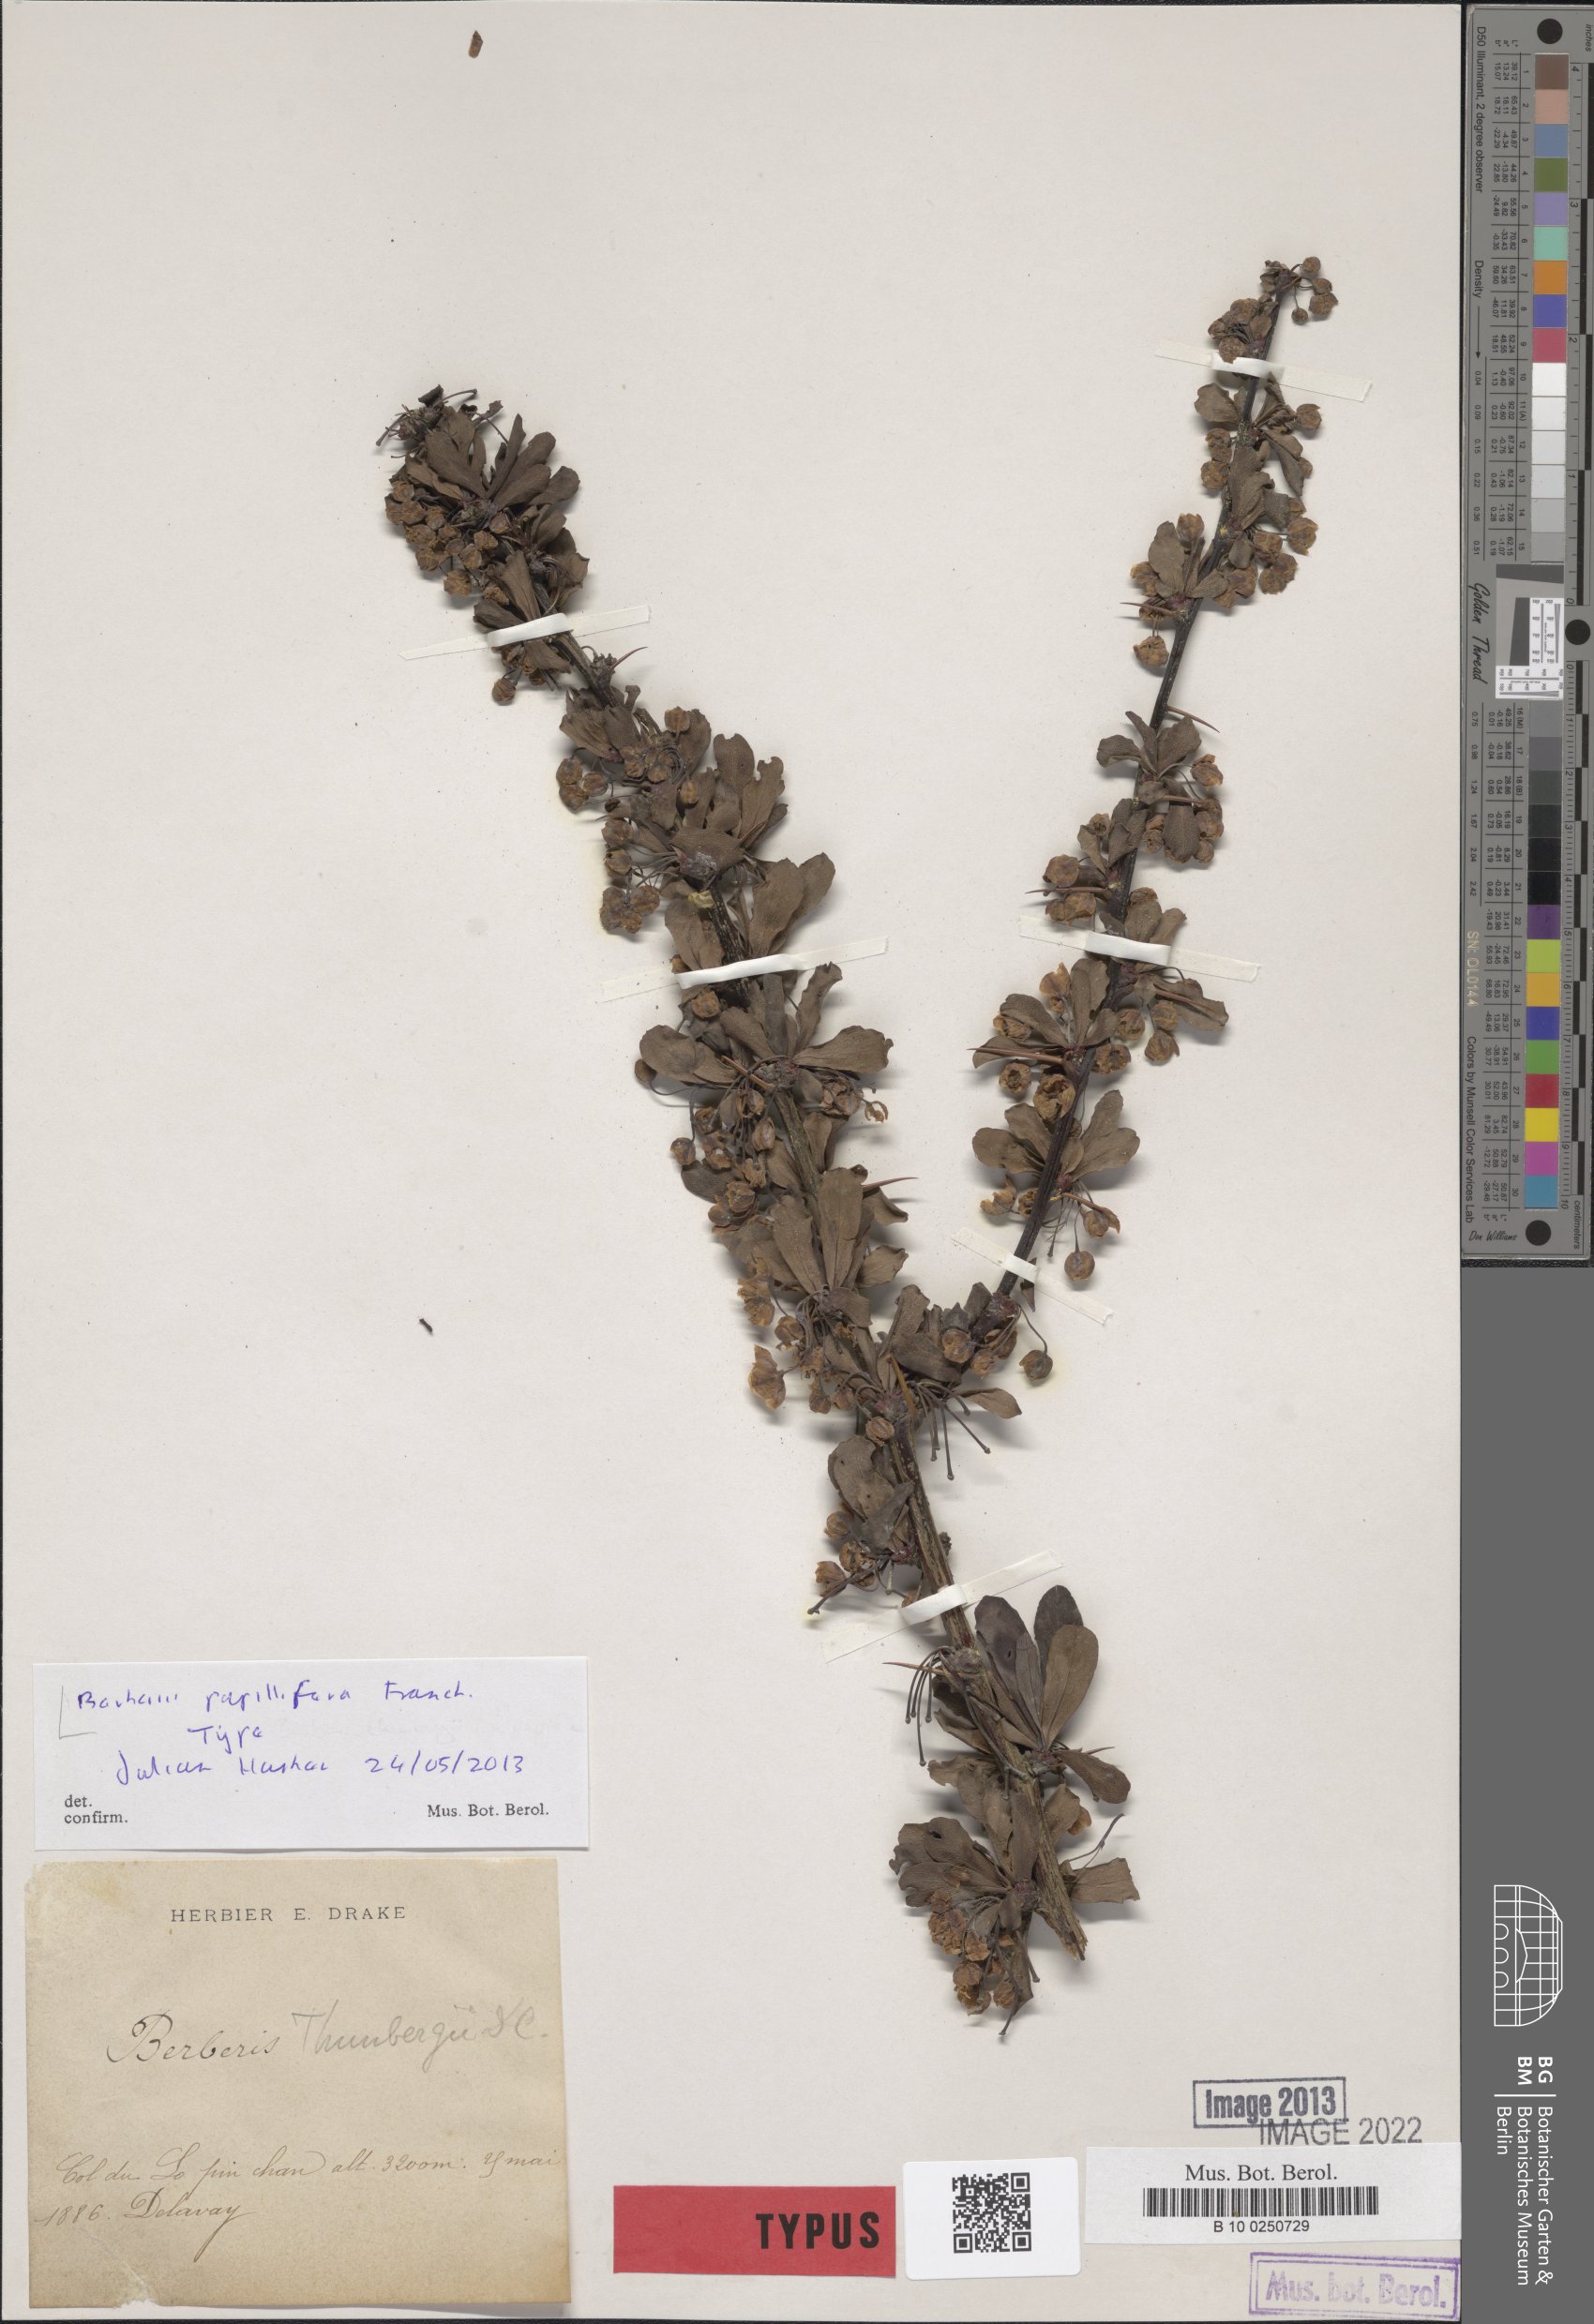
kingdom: Plantae
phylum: Tracheophyta
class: Magnoliopsida
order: Ranunculales
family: Berberidaceae
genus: Berberis
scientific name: Berberis thunbergii
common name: Japanese barberry
